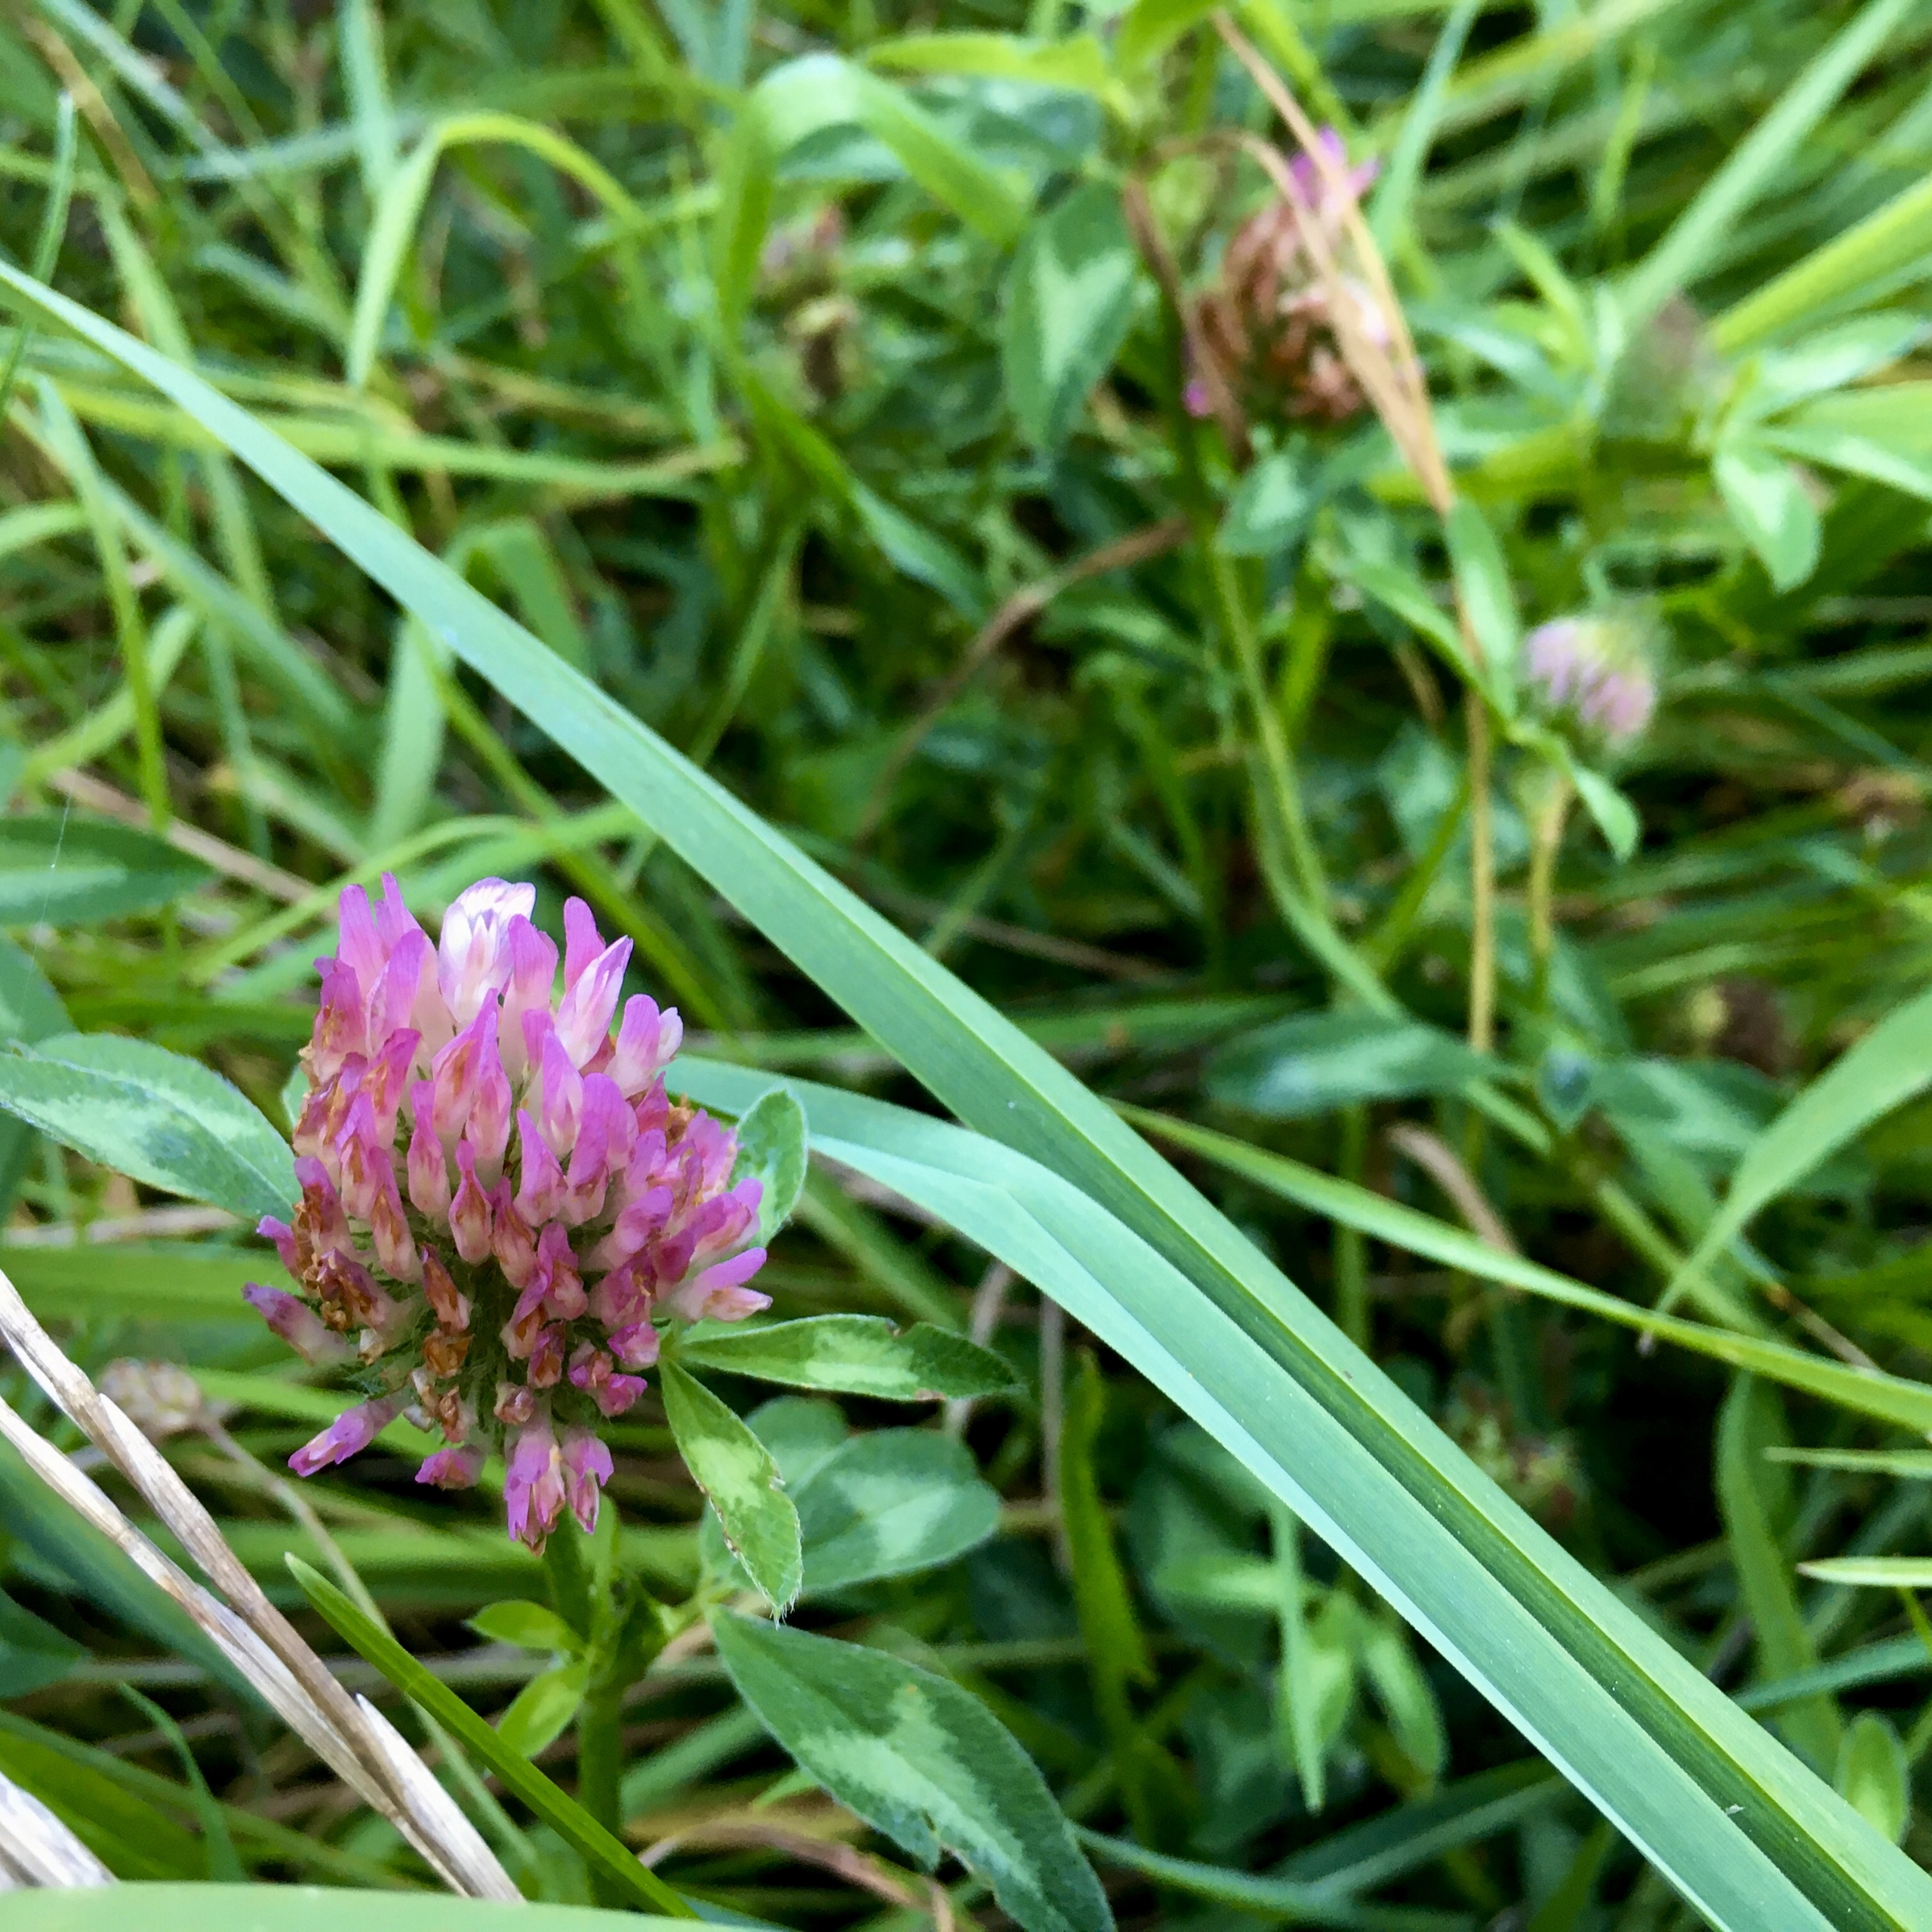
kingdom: Plantae
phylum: Tracheophyta
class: Magnoliopsida
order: Fabales
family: Fabaceae
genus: Trifolium
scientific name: Trifolium pratense
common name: Rød-kløver
